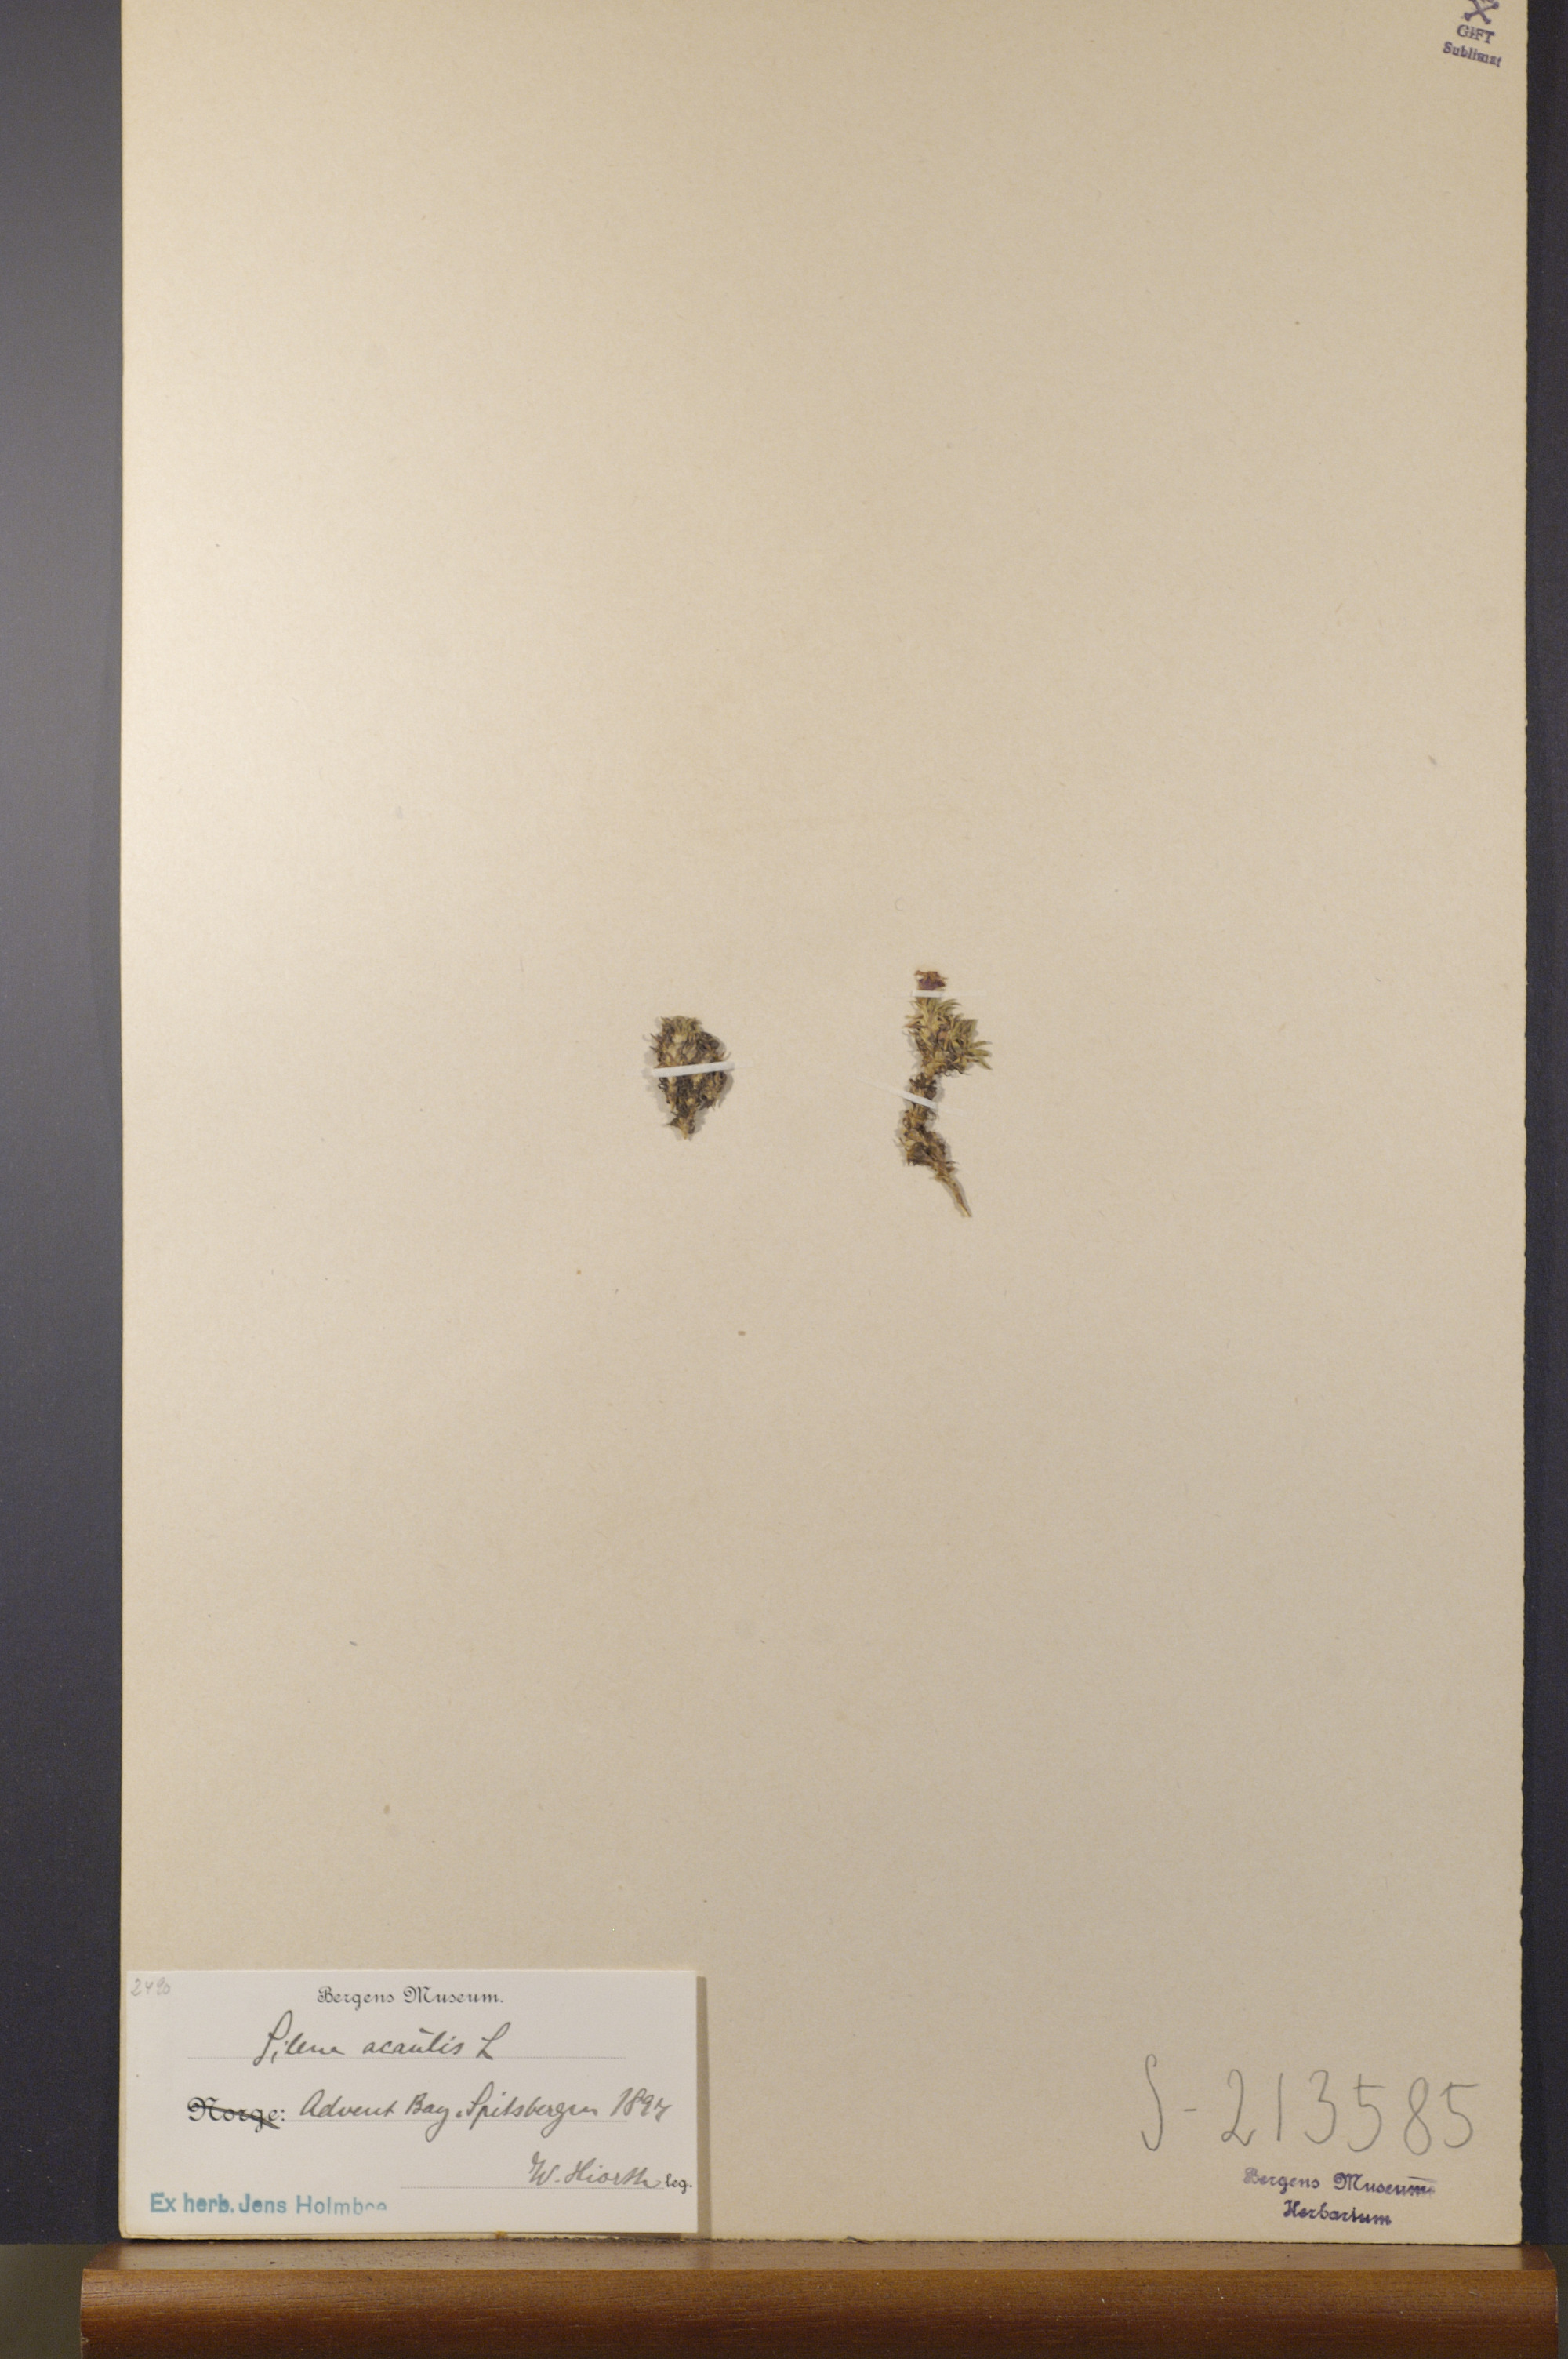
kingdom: Plantae
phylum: Tracheophyta
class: Magnoliopsida
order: Caryophyllales
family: Caryophyllaceae
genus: Silene
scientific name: Silene acaulis
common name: Moss campion
